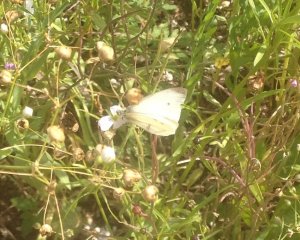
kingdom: Animalia
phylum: Arthropoda
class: Insecta
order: Lepidoptera
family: Pieridae
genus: Pieris
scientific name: Pieris rapae
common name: Cabbage White
